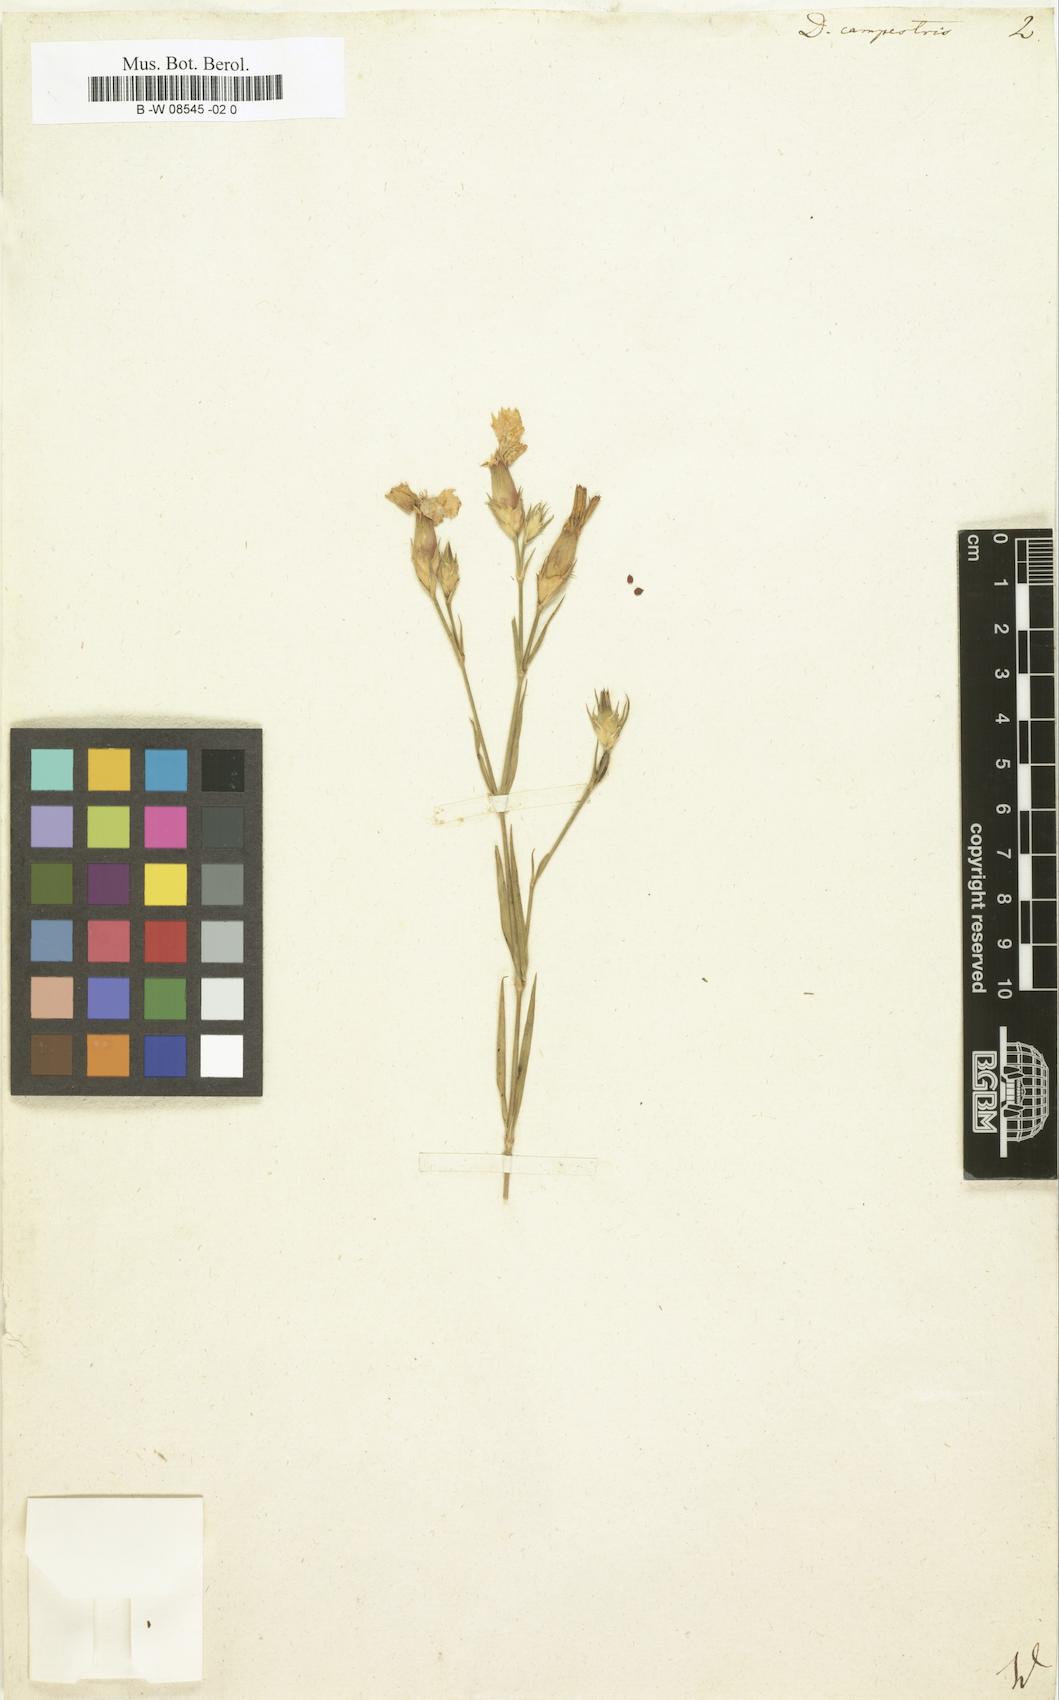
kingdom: Plantae
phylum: Tracheophyta
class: Magnoliopsida
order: Caryophyllales
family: Caryophyllaceae
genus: Dianthus
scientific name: Dianthus campestris
